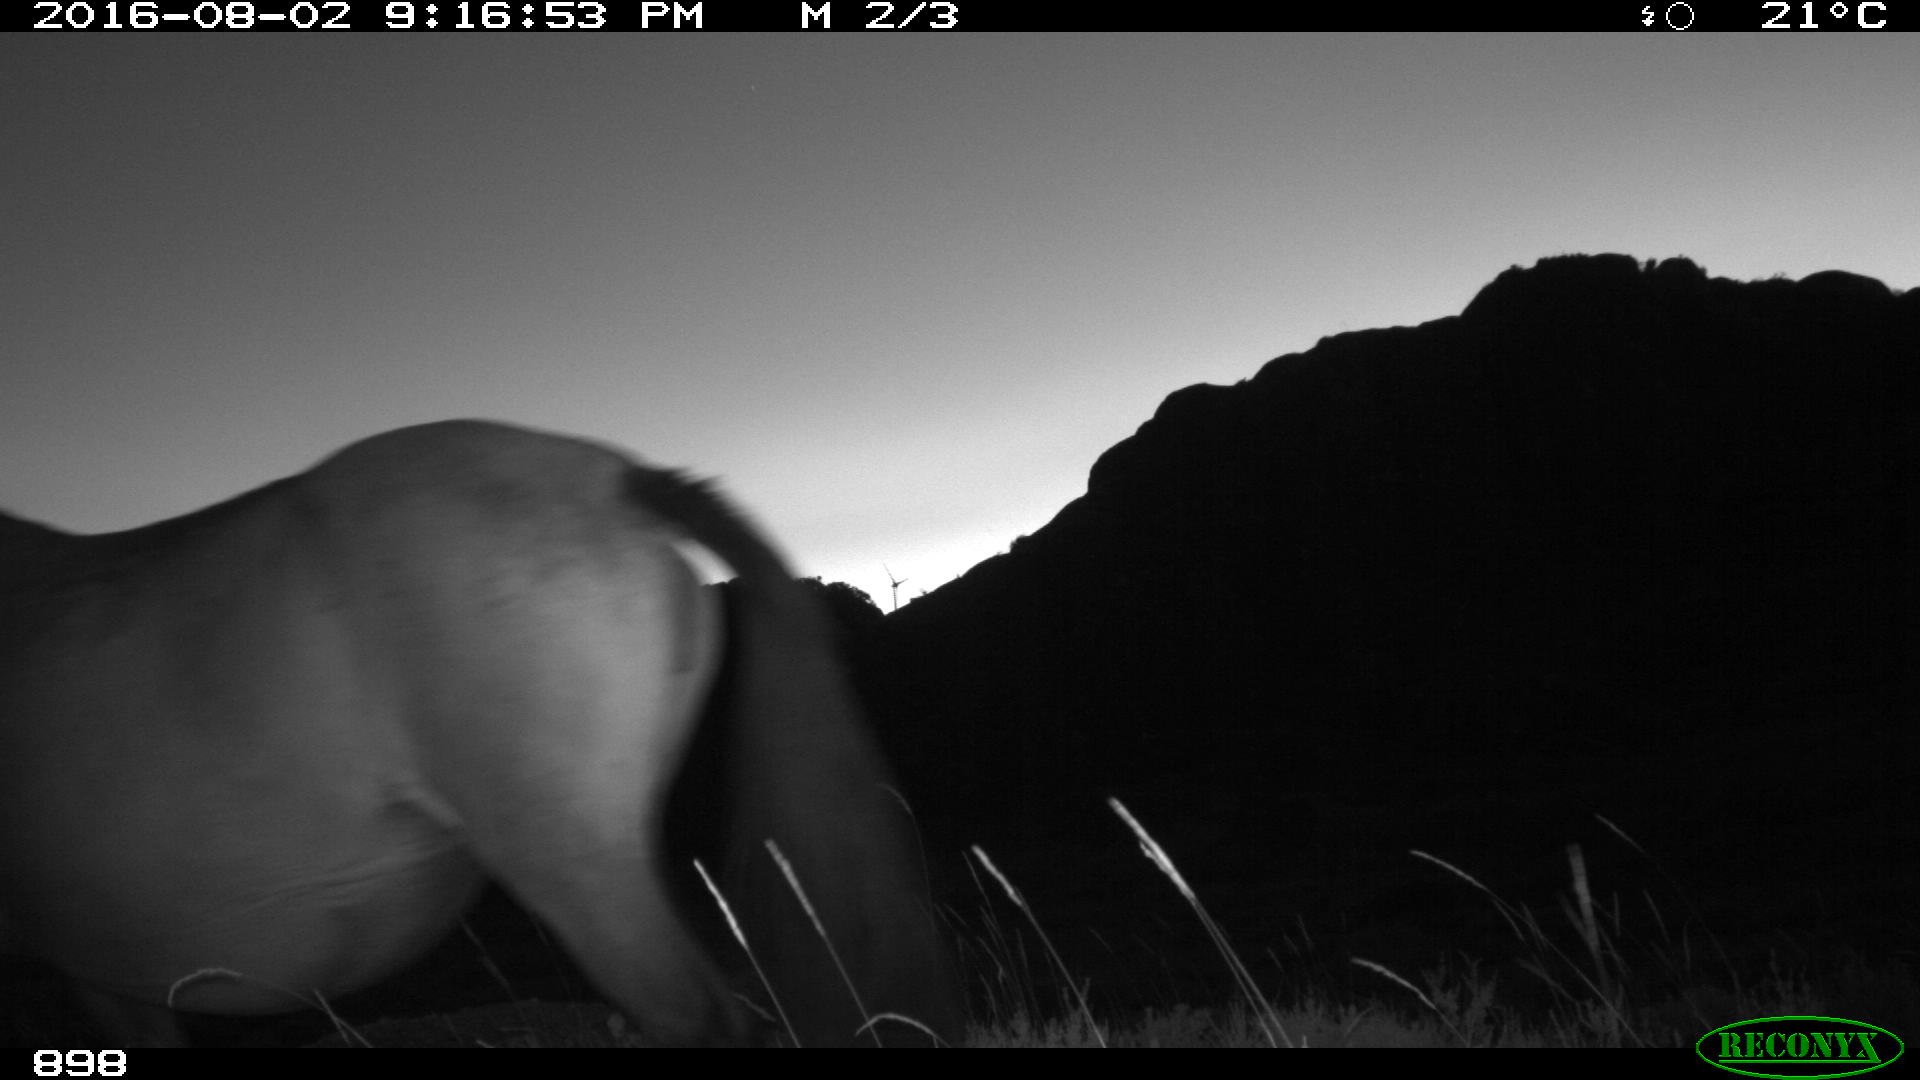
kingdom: Animalia
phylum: Chordata
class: Mammalia
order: Perissodactyla
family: Equidae
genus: Equus
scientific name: Equus caballus
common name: Horse
